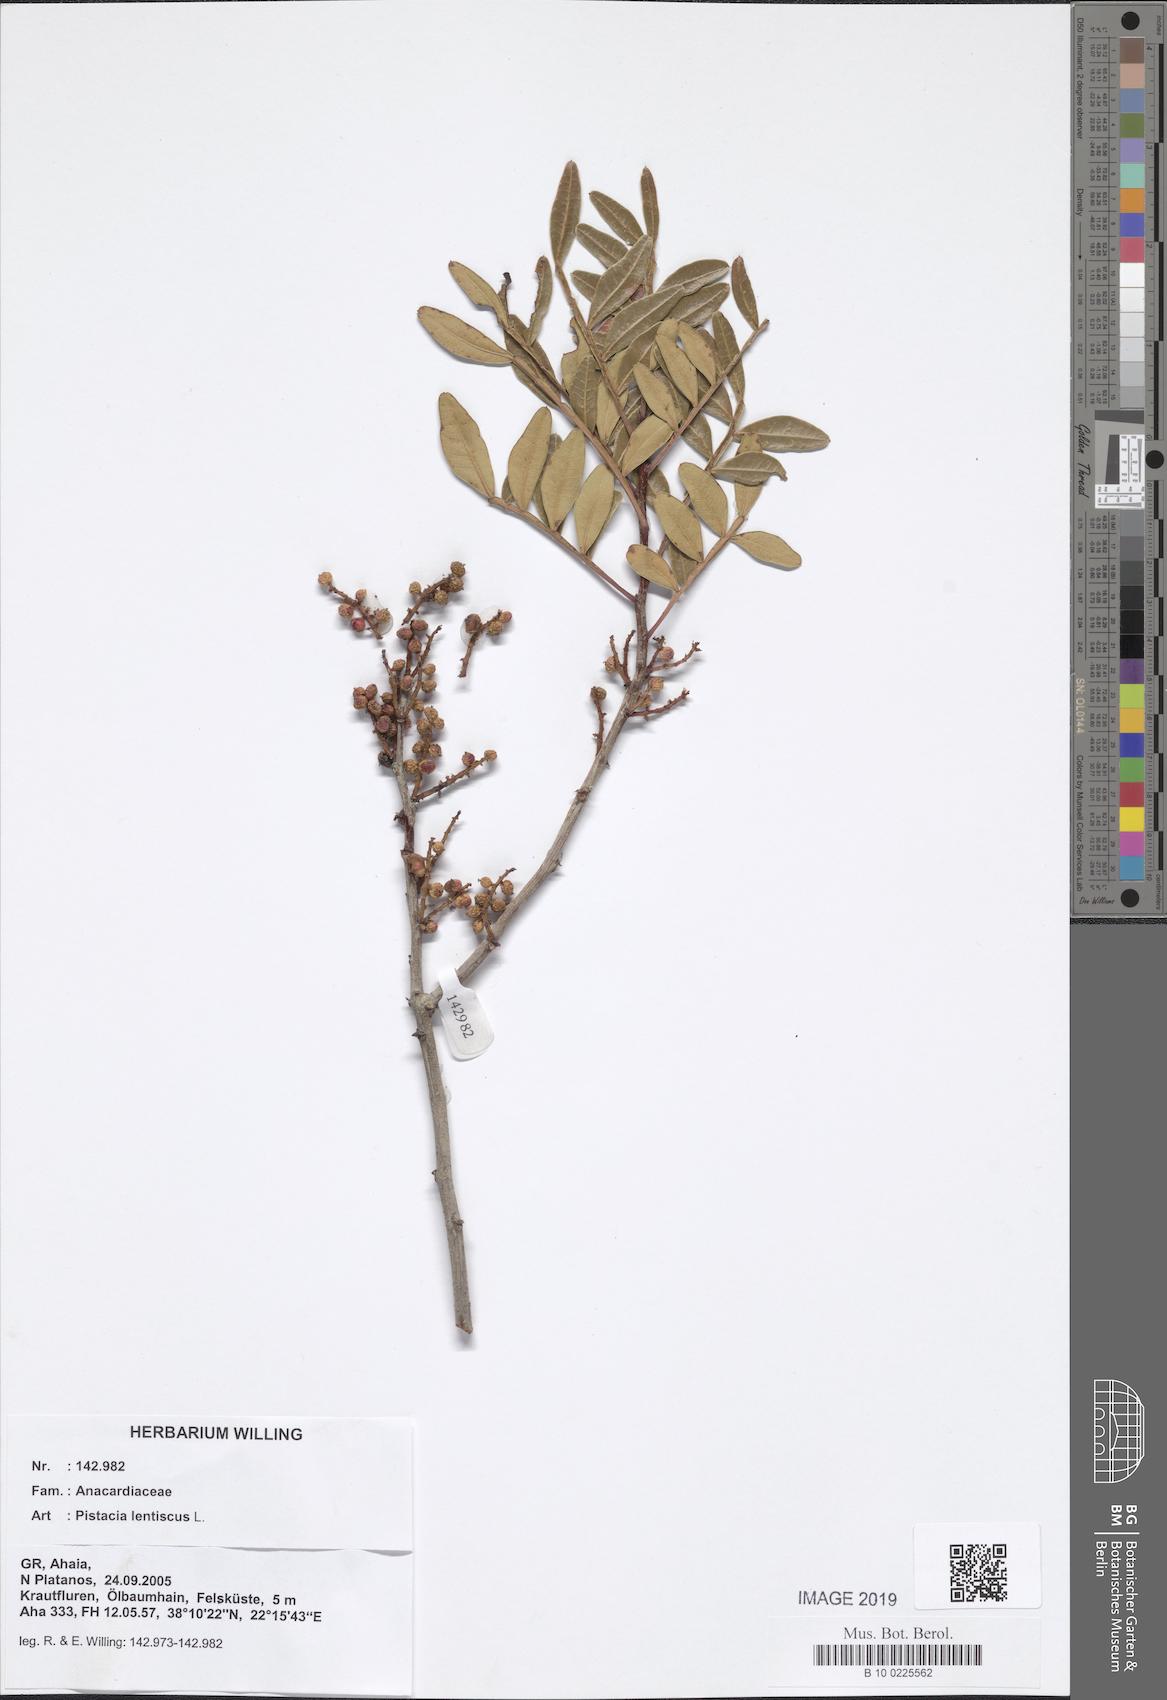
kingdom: Plantae
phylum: Tracheophyta
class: Magnoliopsida
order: Sapindales
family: Anacardiaceae
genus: Pistacia
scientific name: Pistacia lentiscus
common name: Lentisk
